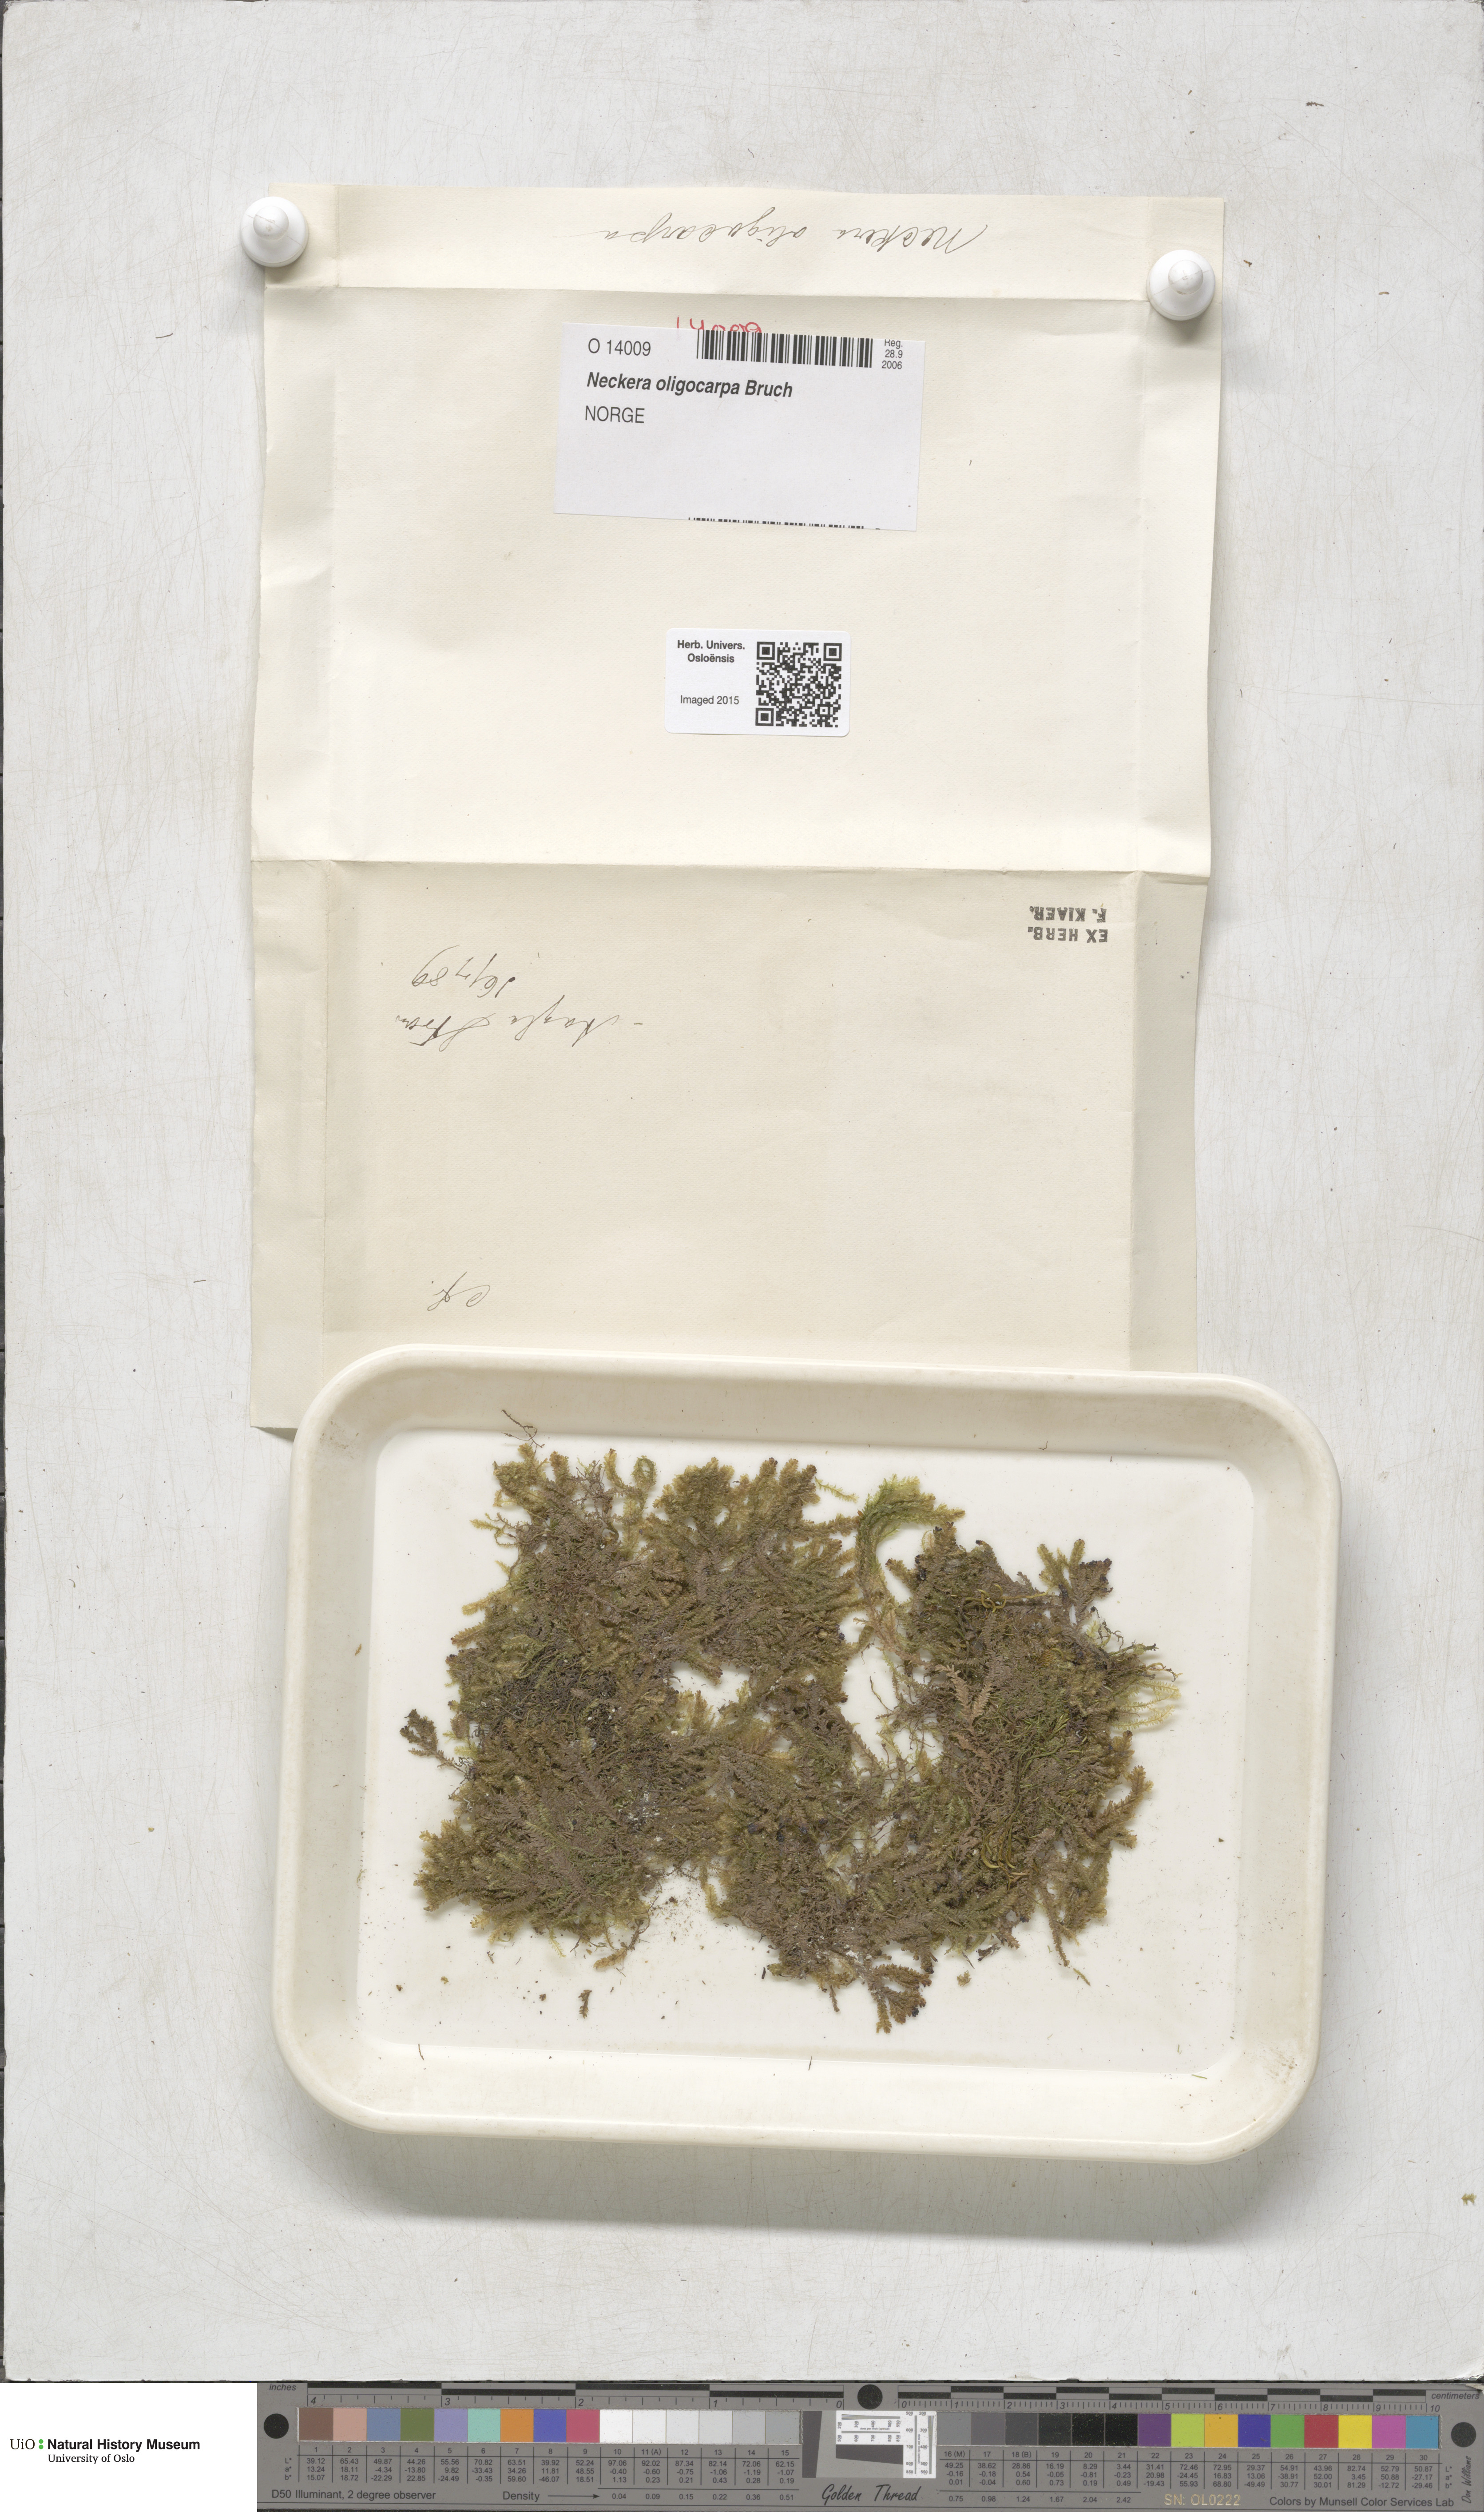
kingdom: Plantae
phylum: Bryophyta
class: Bryopsida
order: Hypnales
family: Neckeraceae
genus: Neckera
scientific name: Neckera oligocarpa
